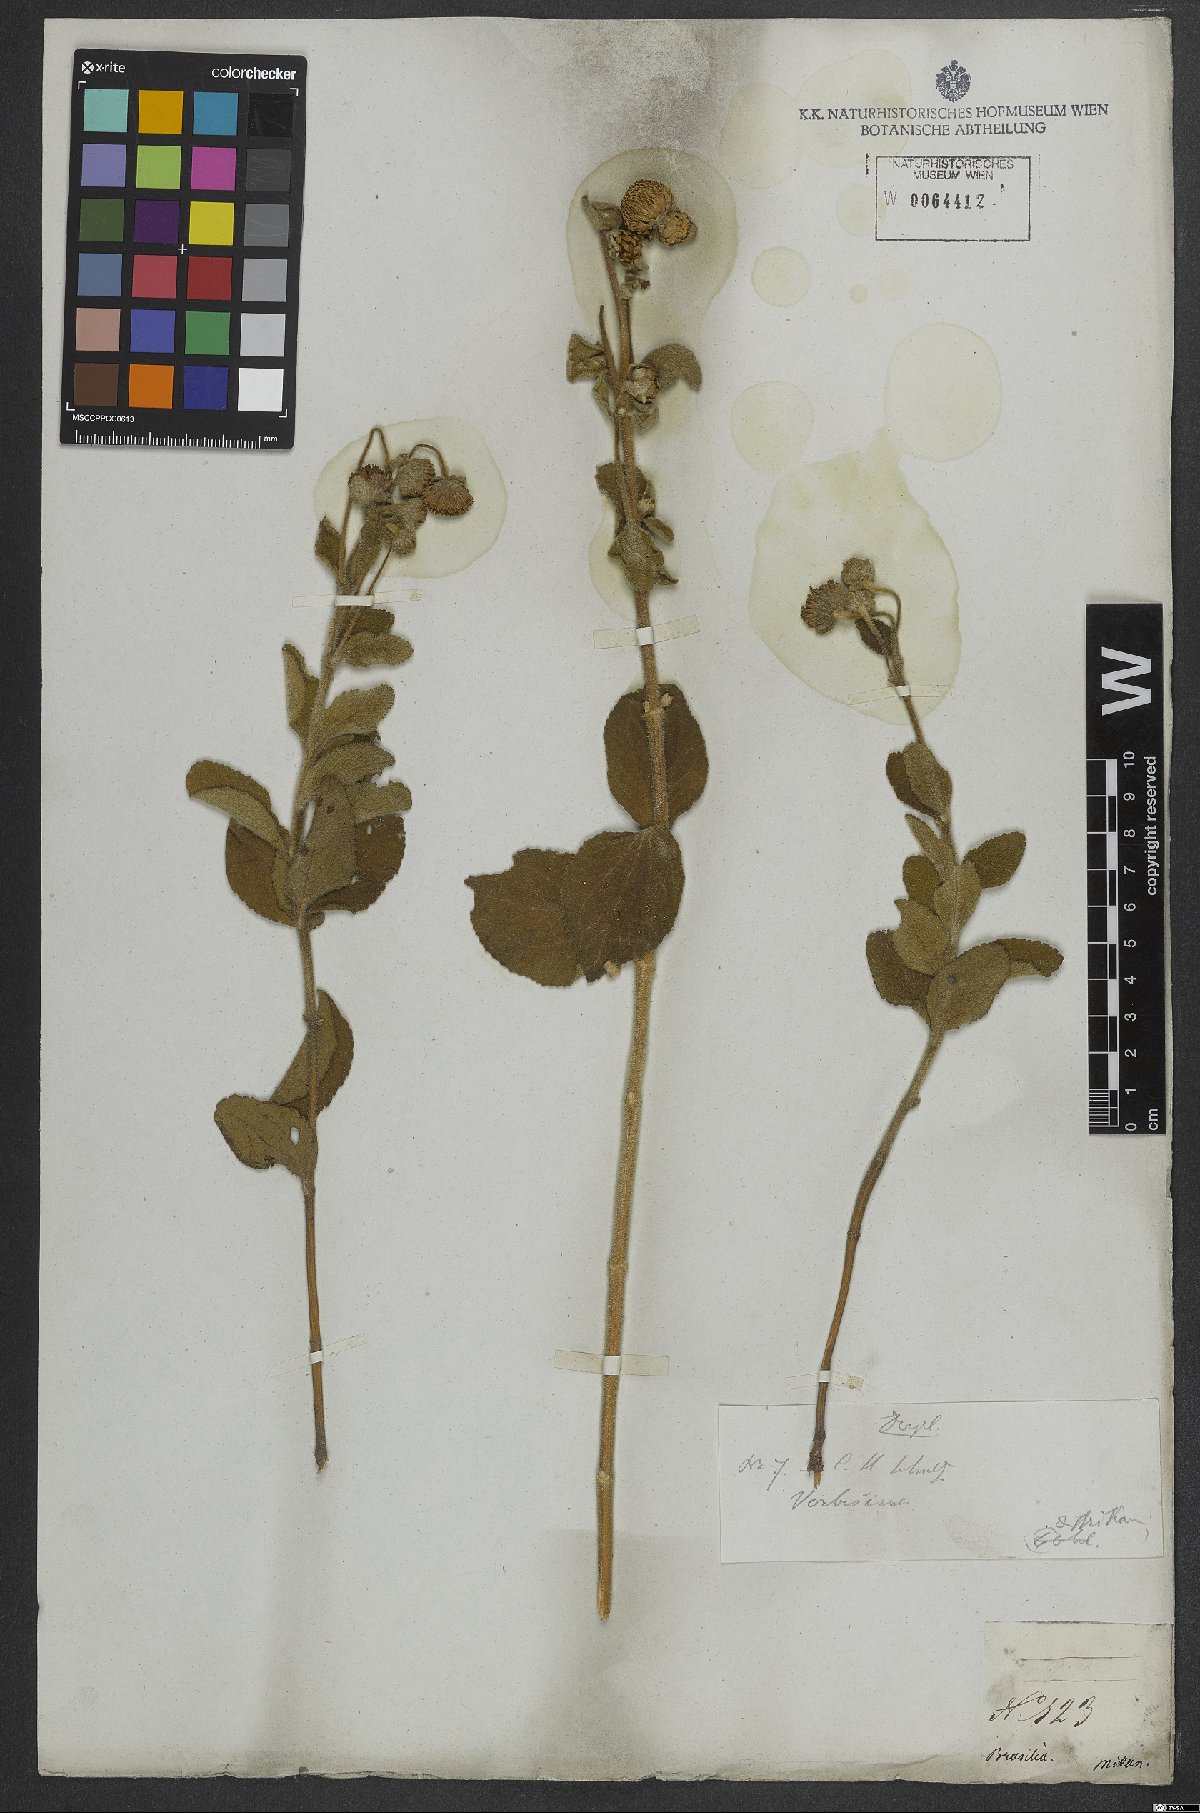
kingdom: Plantae
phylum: Tracheophyta
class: Magnoliopsida
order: Asterales
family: Asteraceae
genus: Verbesina
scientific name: Verbesina
